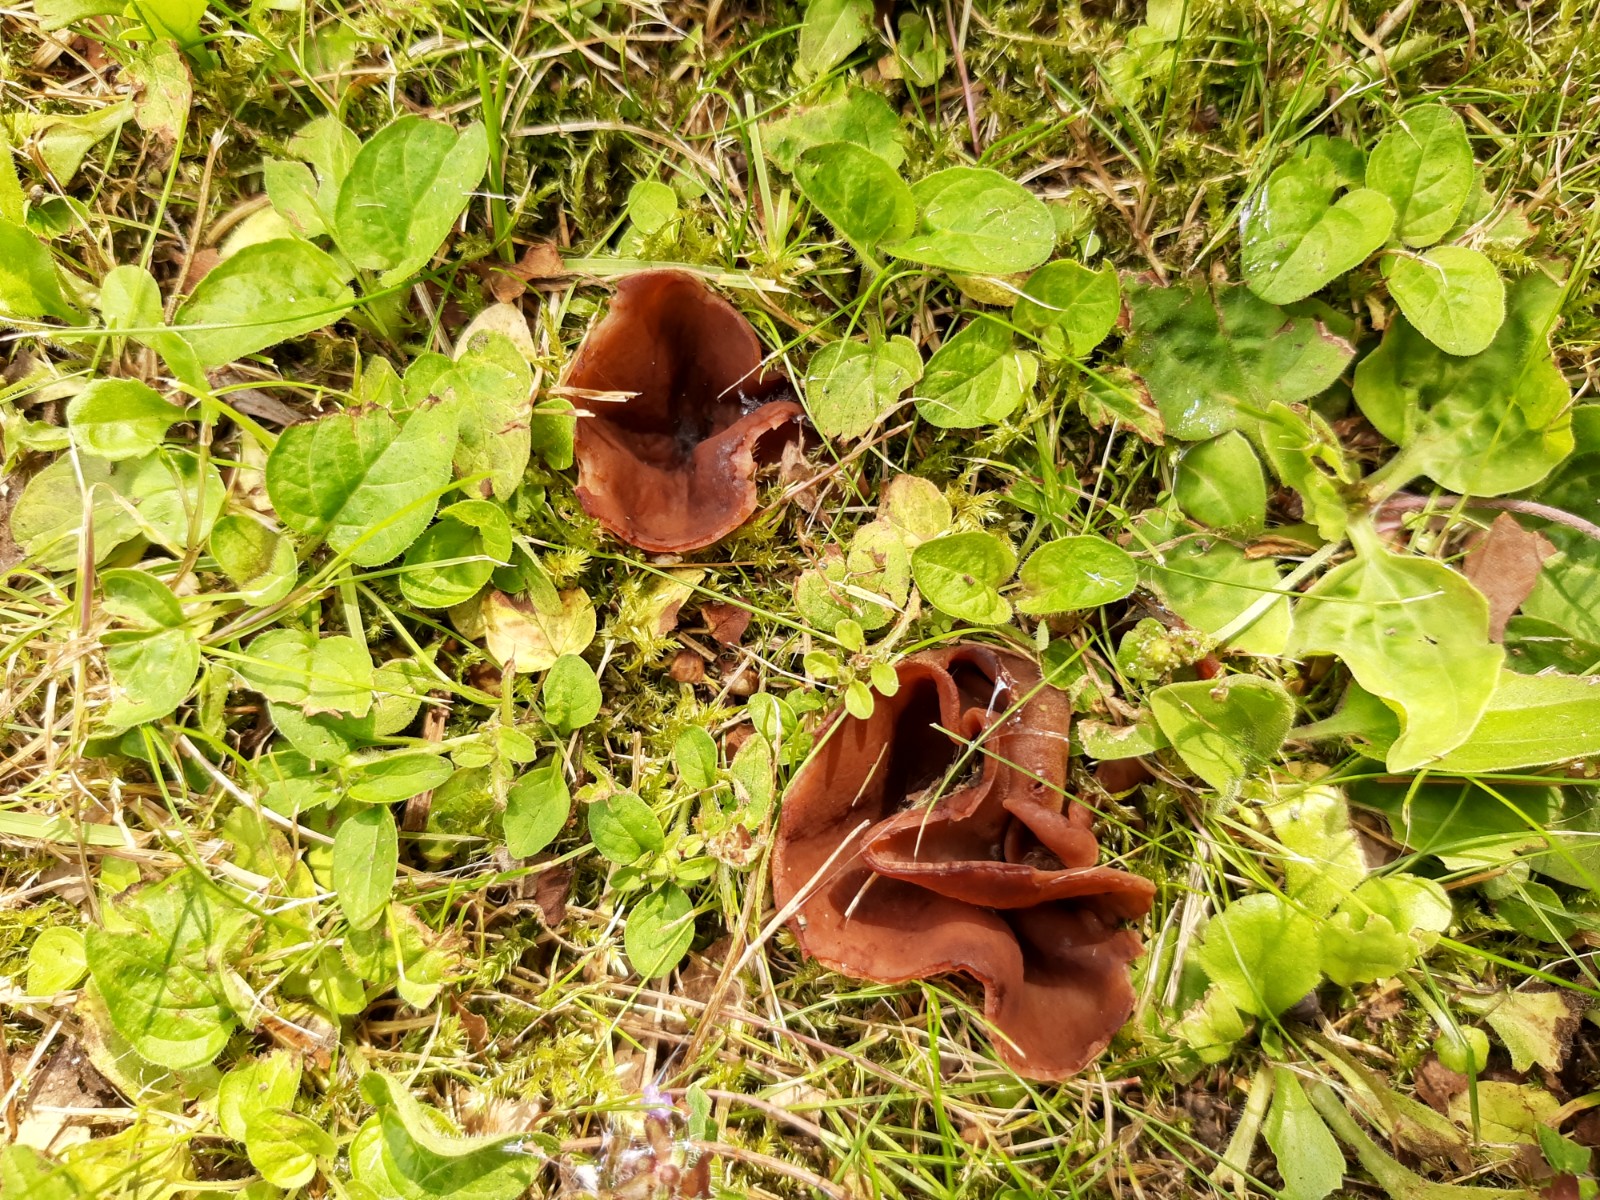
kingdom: Fungi
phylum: Ascomycota
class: Pezizomycetes
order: Pezizales
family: Pezizaceae
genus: Adelphella
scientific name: Adelphella babingtonii
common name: kastaniebrun bægersvamp
